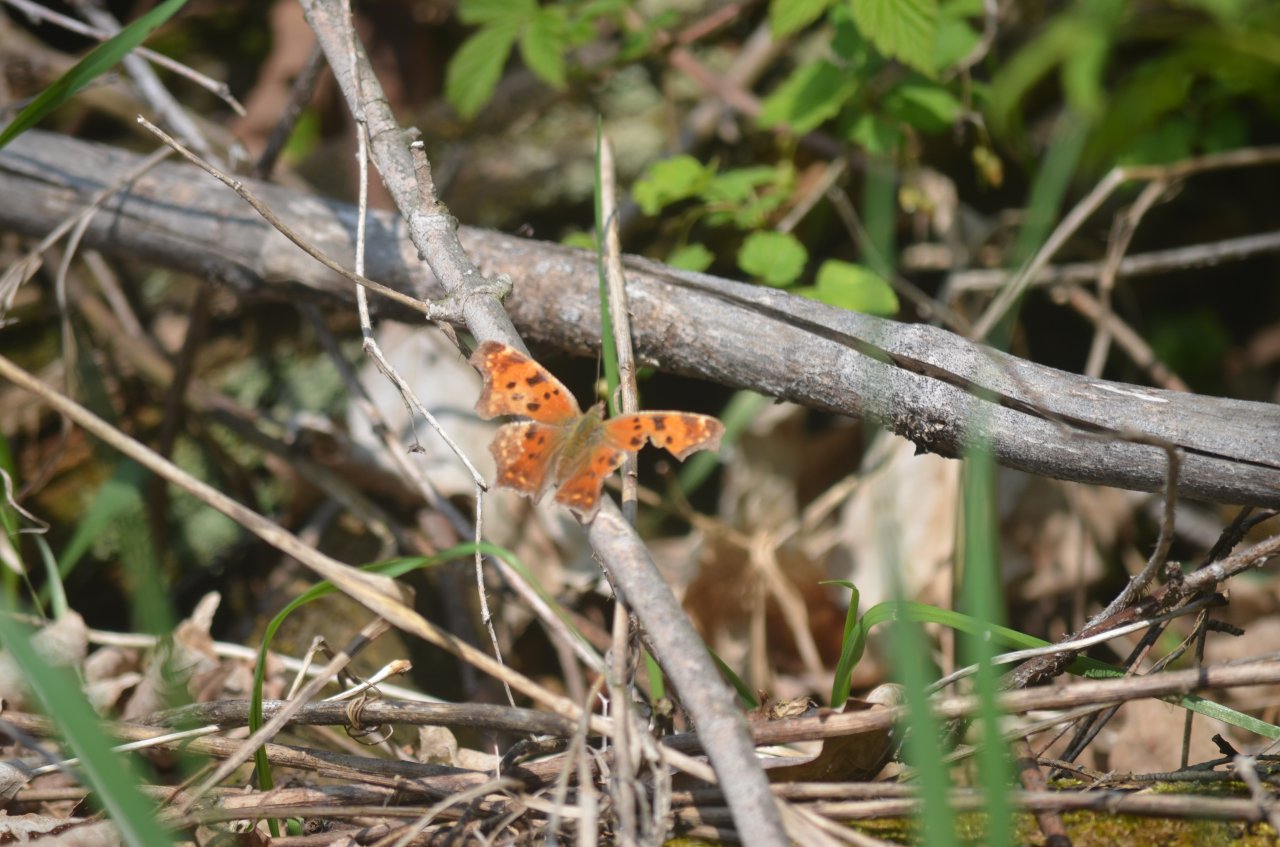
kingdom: Animalia
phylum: Arthropoda
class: Insecta
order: Lepidoptera
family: Nymphalidae
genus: Polygonia
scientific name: Polygonia comma
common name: Eastern Comma
